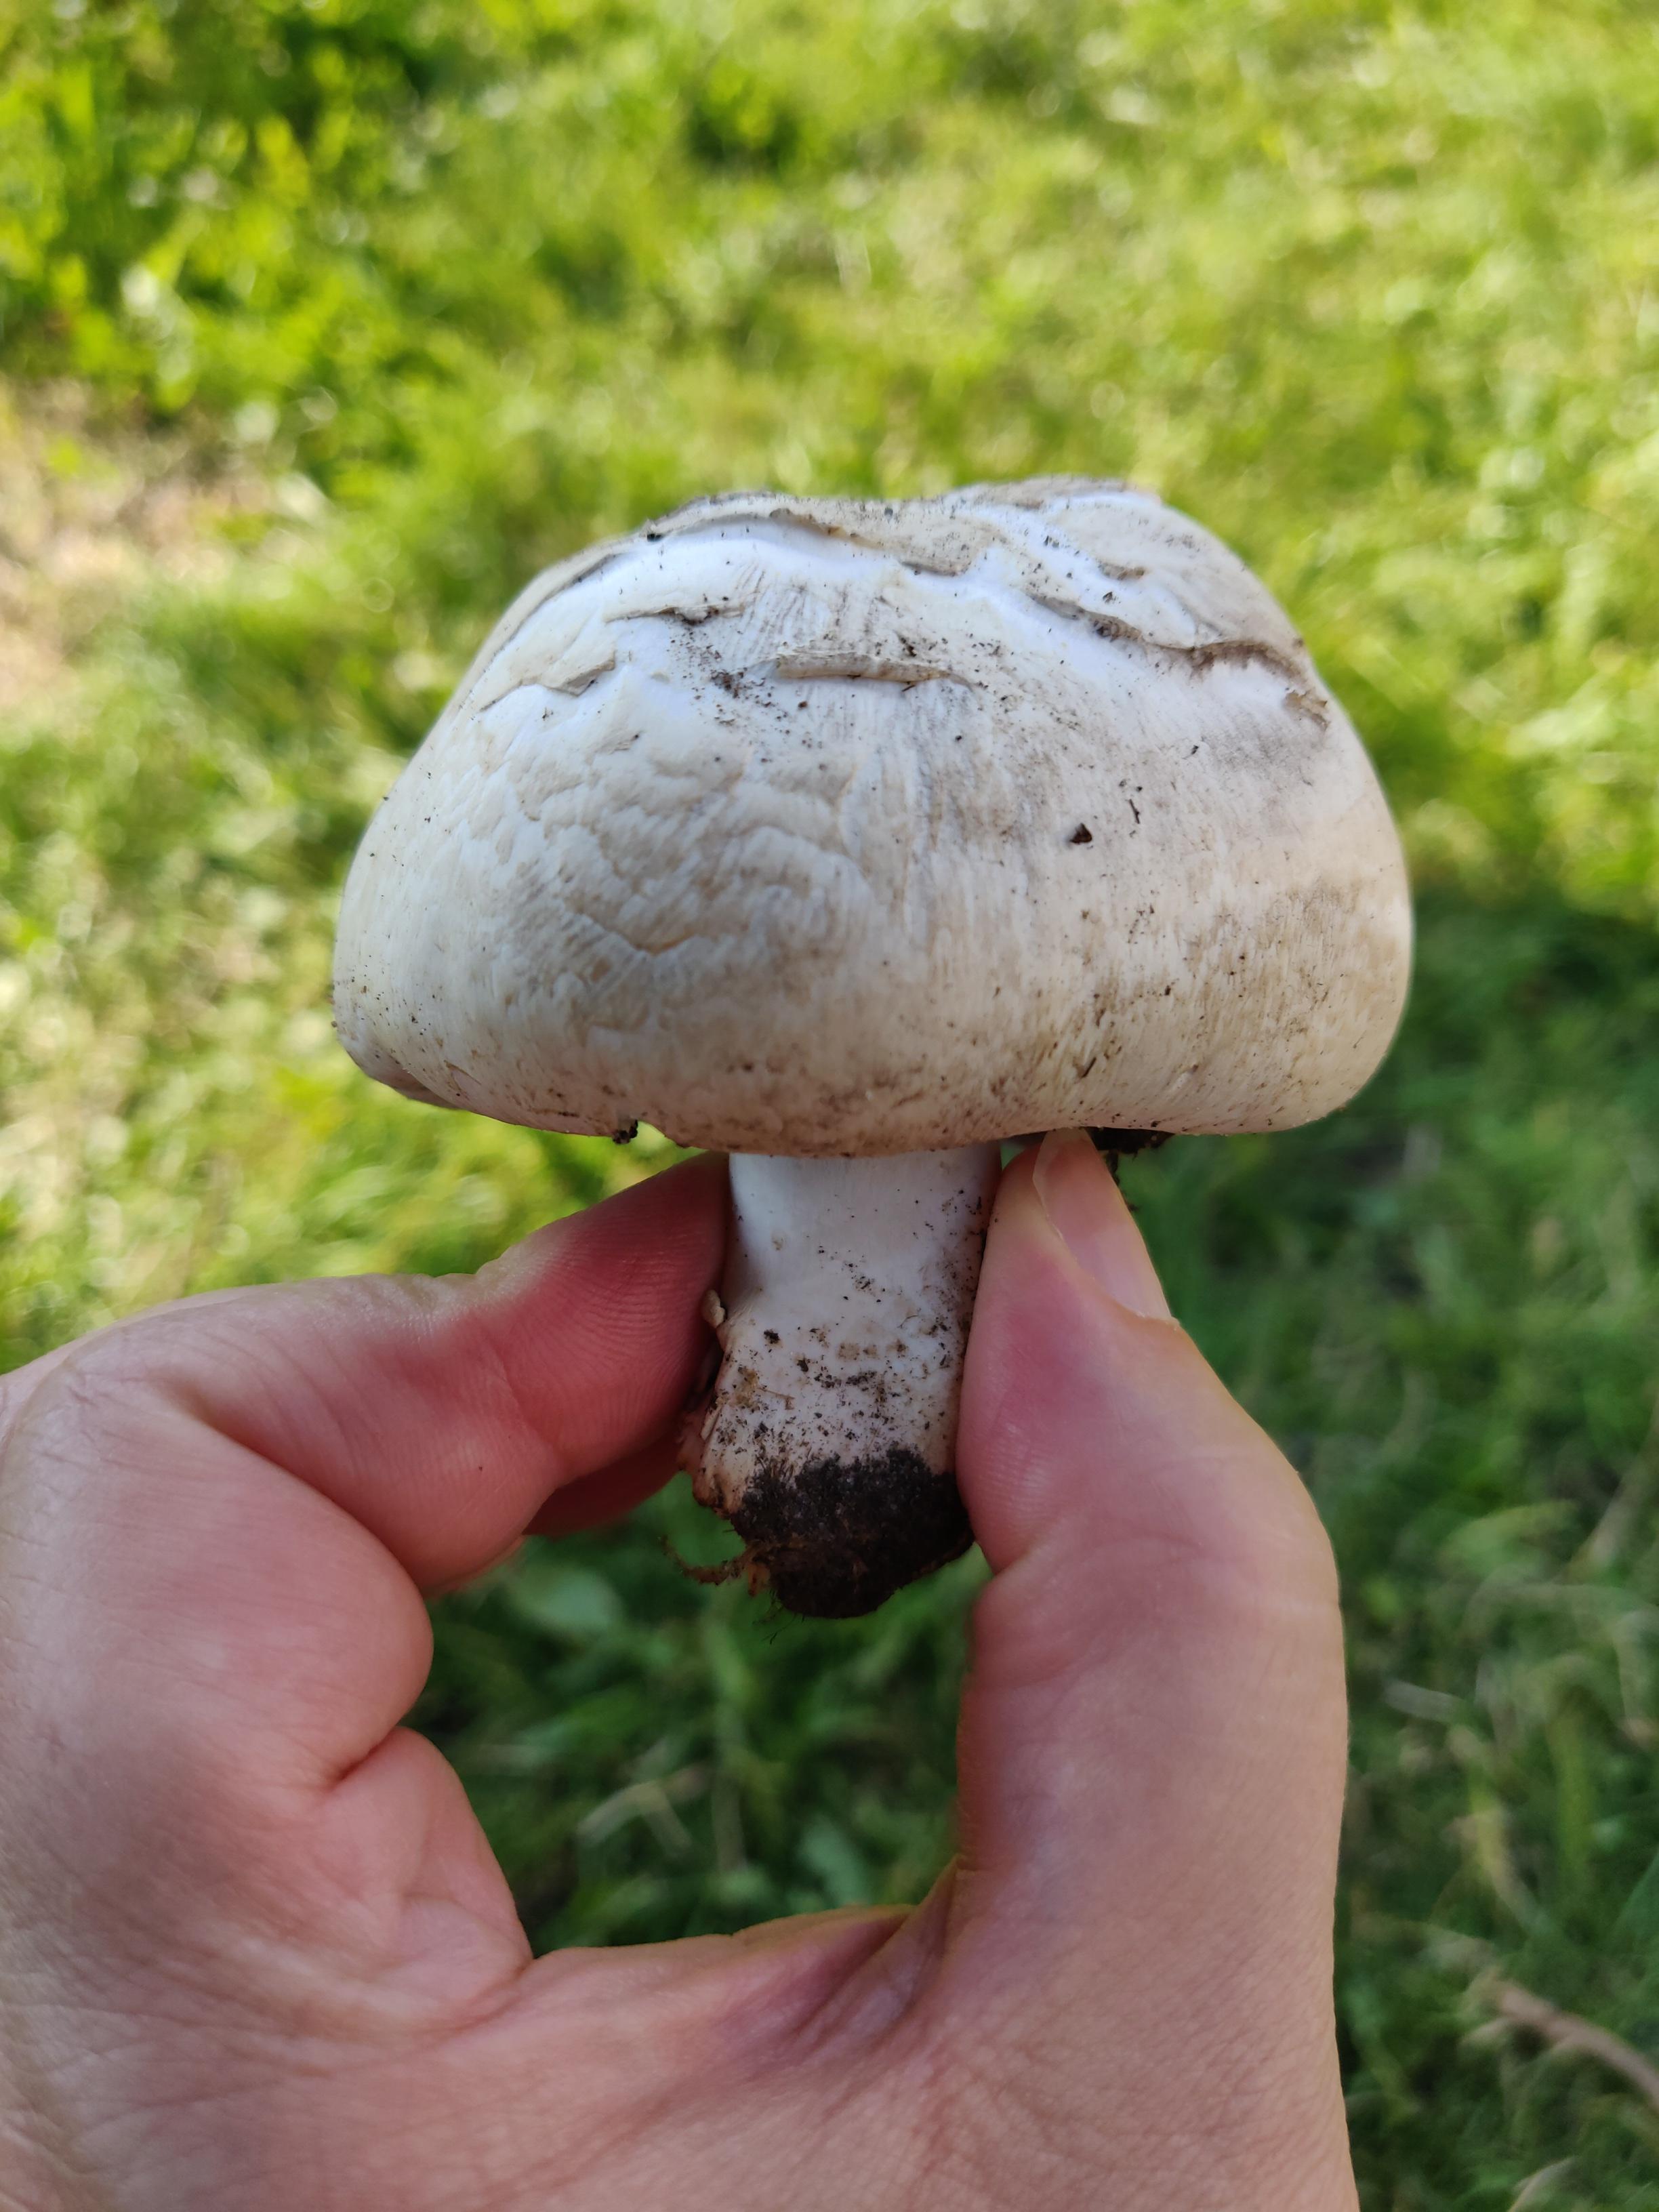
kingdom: Fungi
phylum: Basidiomycota
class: Agaricomycetes
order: Agaricales
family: Agaricaceae
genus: Agaricus
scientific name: Agaricus
